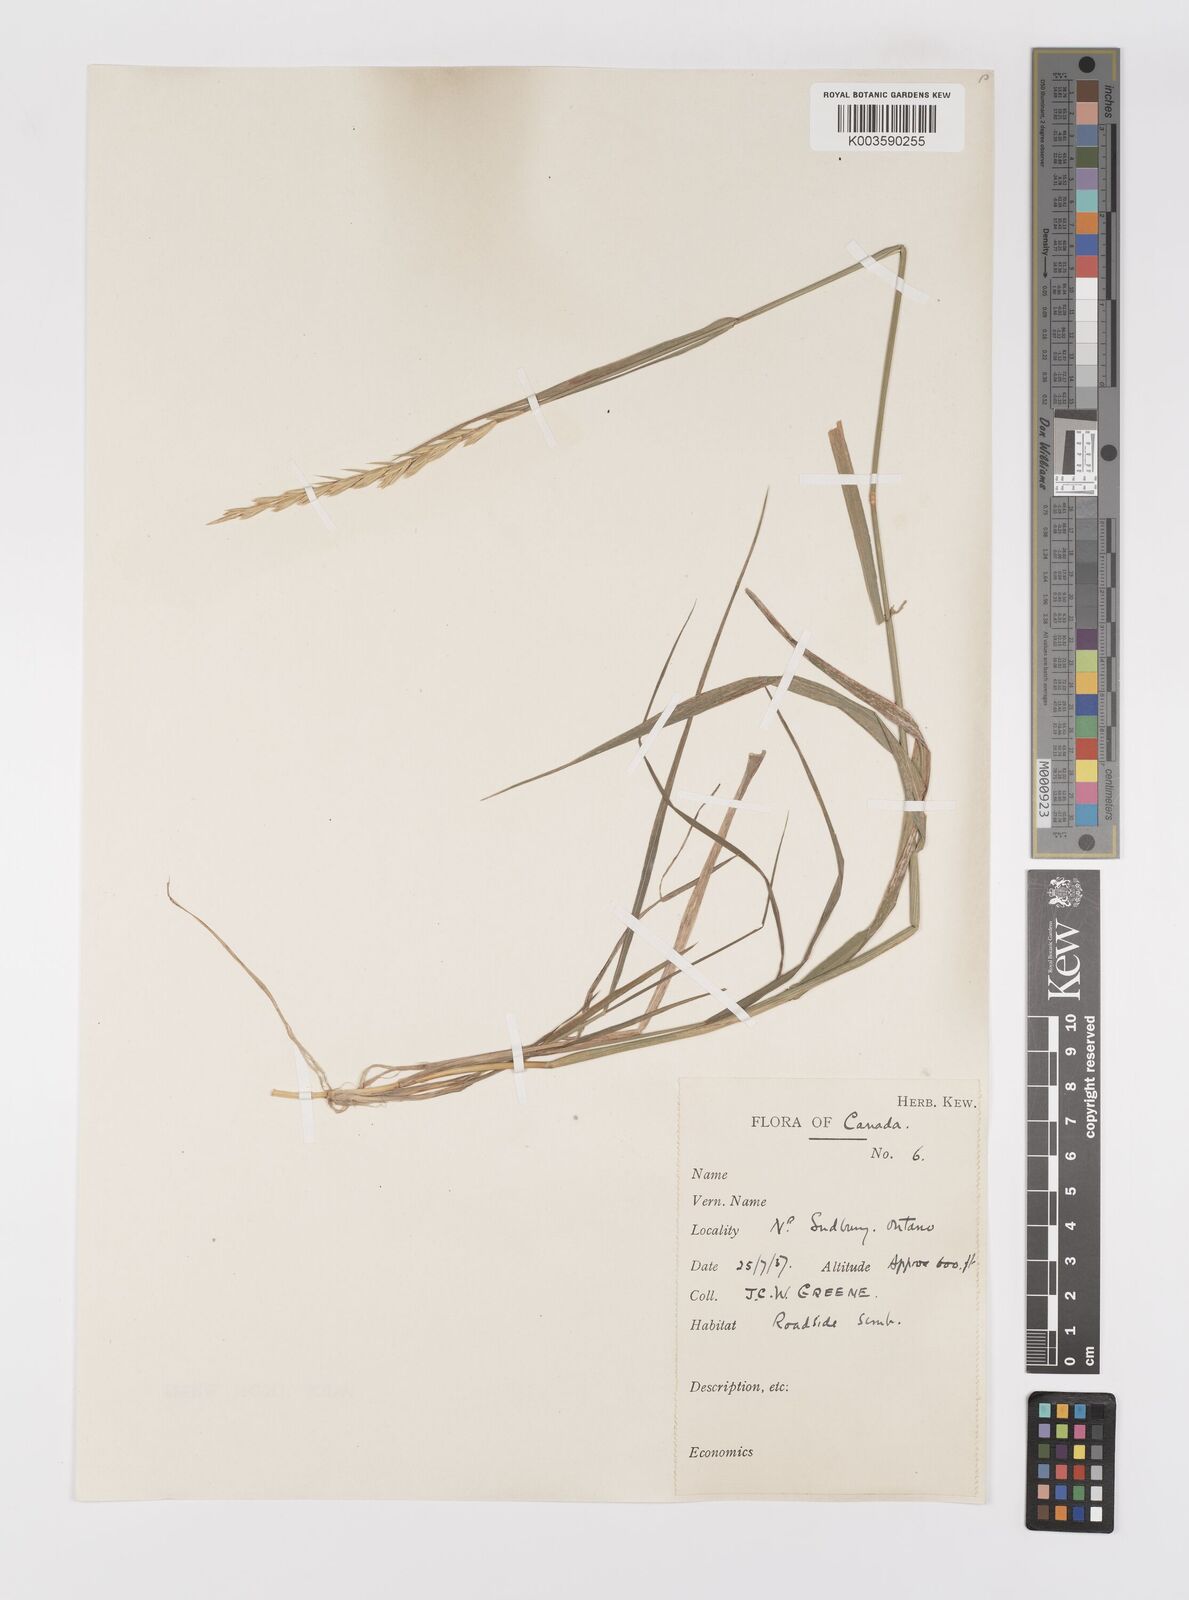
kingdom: Plantae
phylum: Tracheophyta
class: Liliopsida
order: Poales
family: Poaceae
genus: Elymus
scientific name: Elymus
